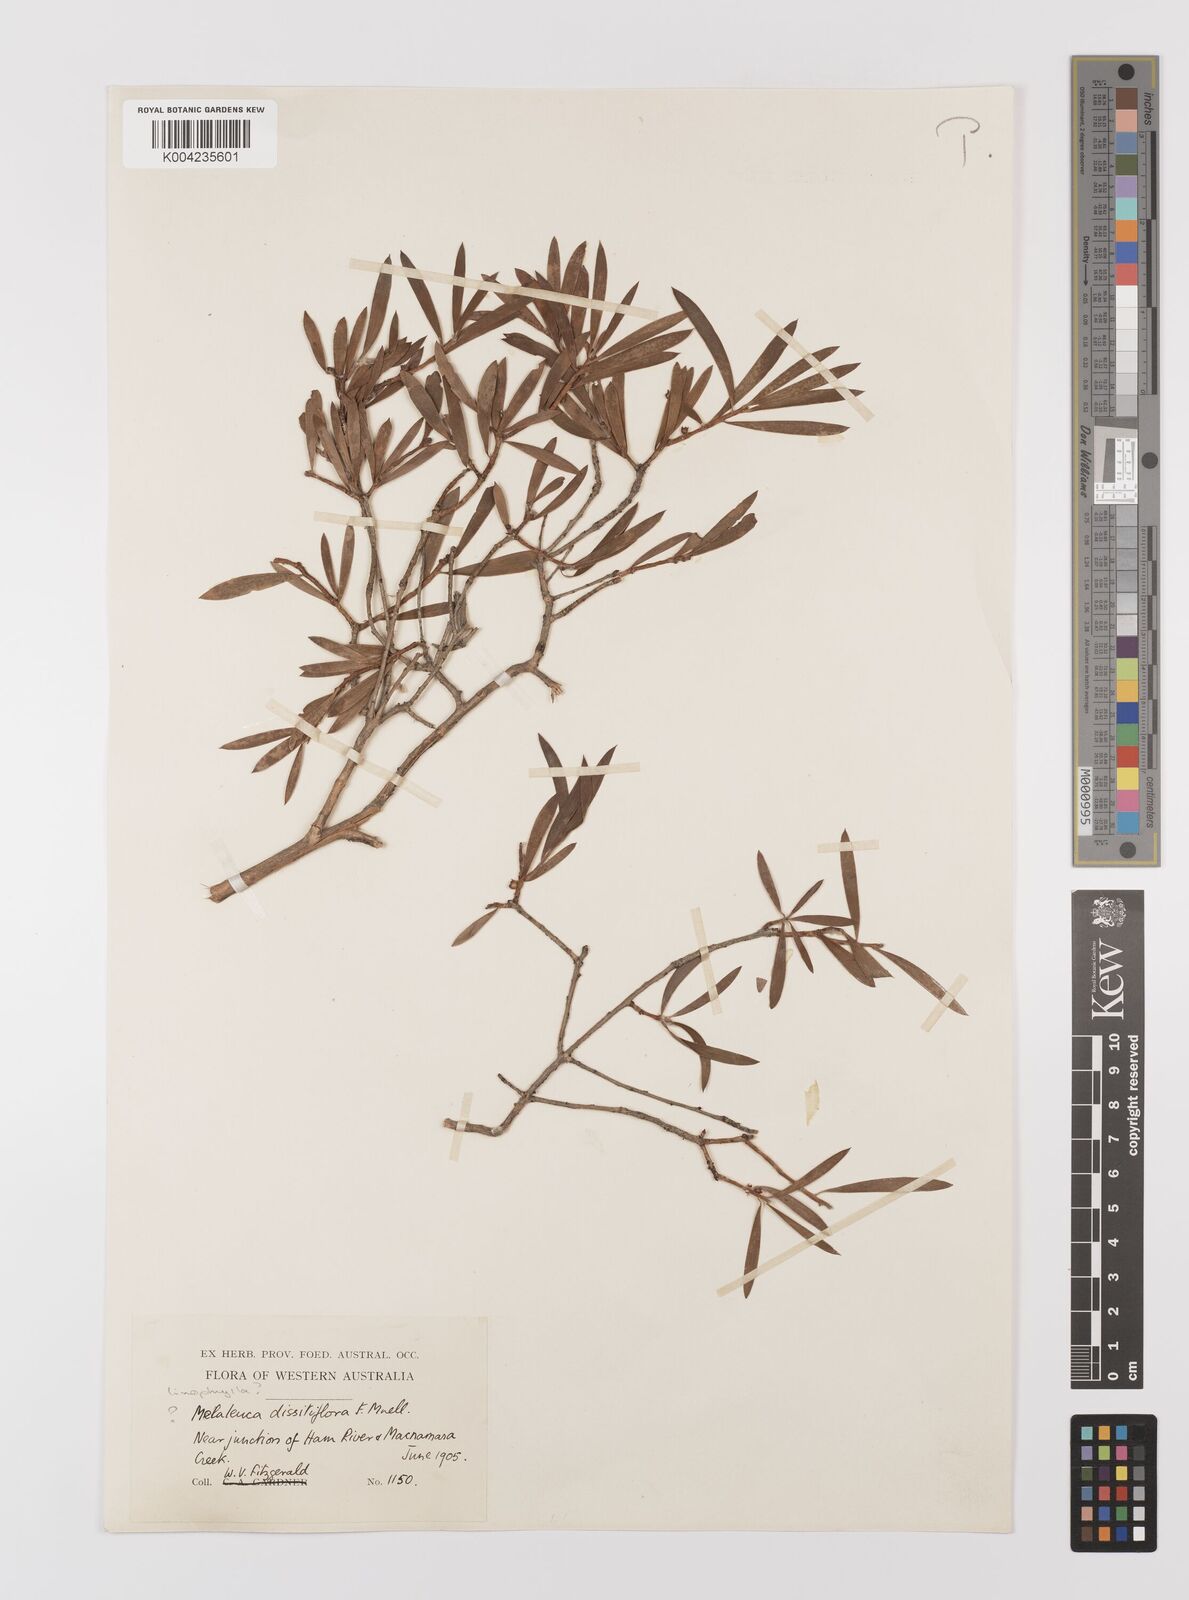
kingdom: Plantae
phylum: Tracheophyta
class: Magnoliopsida
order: Myrtales
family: Myrtaceae
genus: Melaleuca
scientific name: Melaleuca linophylla
